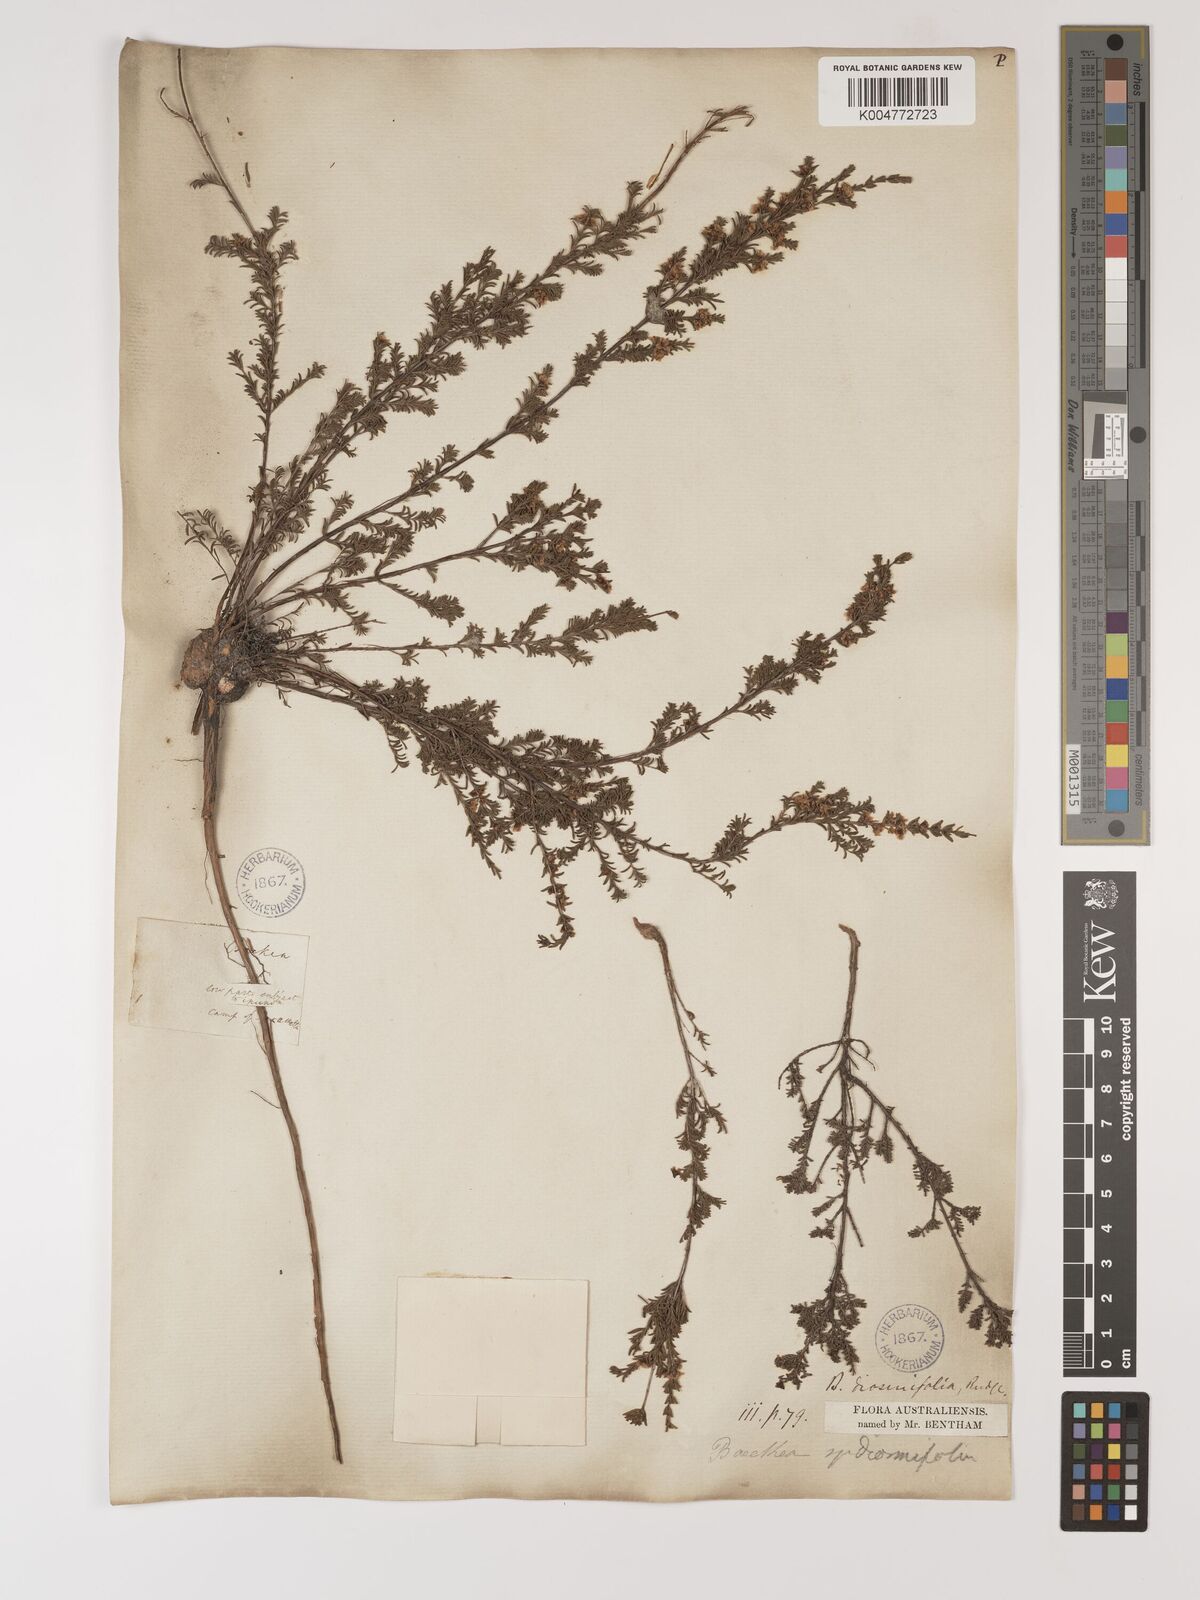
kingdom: Plantae
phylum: Tracheophyta
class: Magnoliopsida
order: Myrtales
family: Myrtaceae
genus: Baeckea
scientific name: Baeckea diosmifolia
